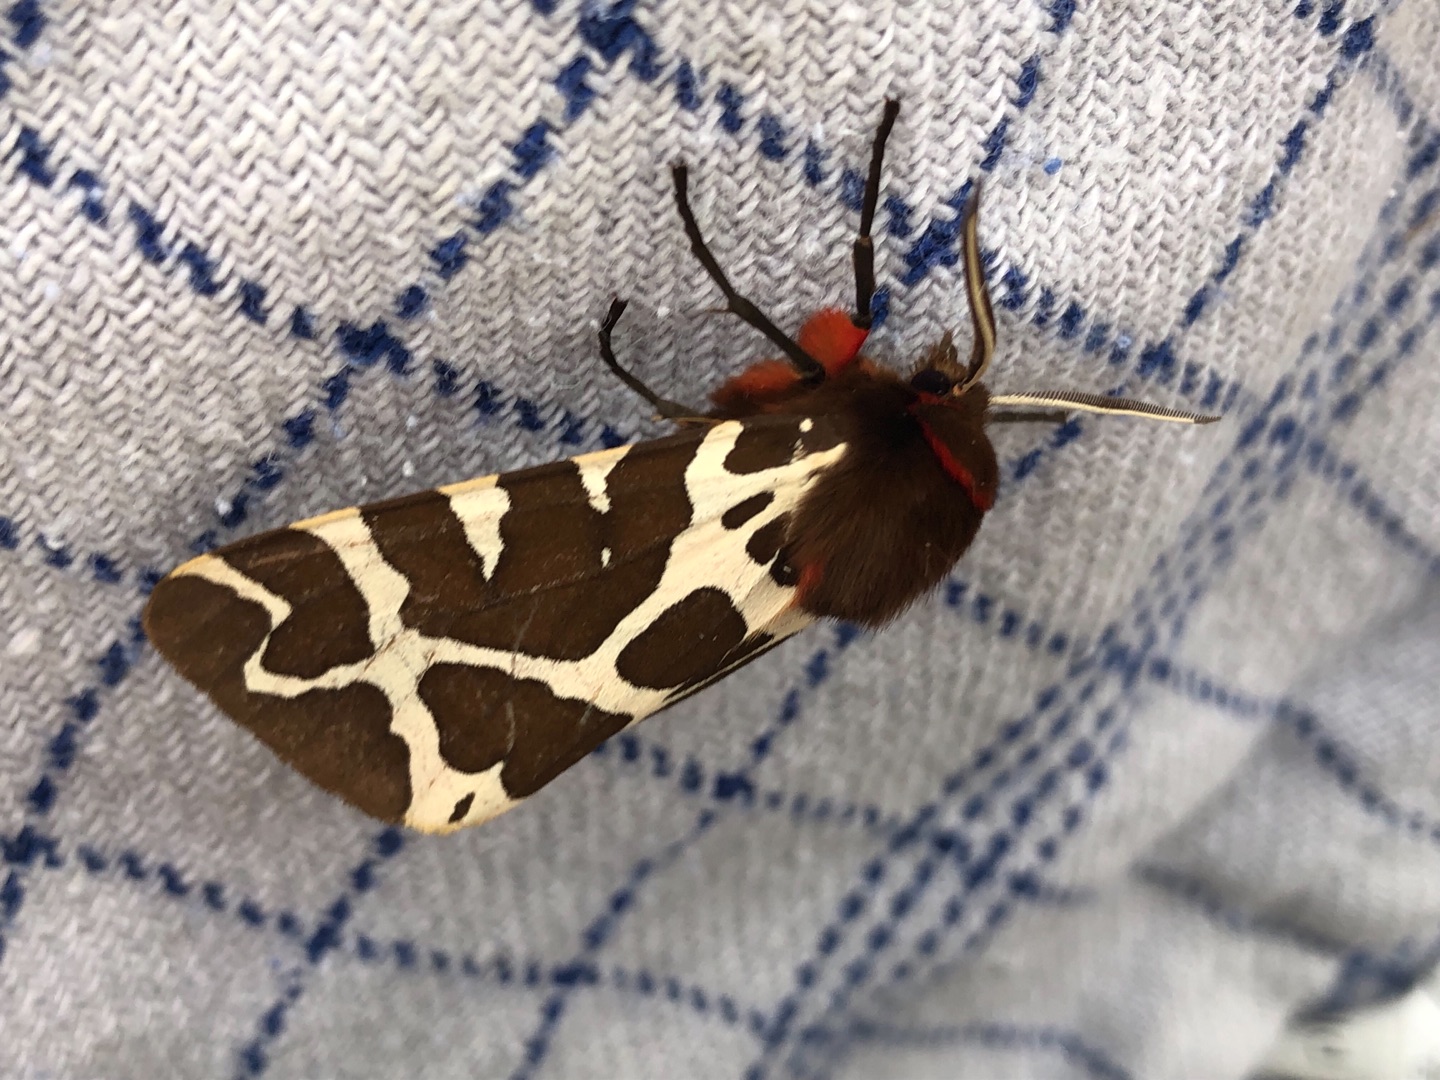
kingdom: Animalia
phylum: Arthropoda
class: Insecta
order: Lepidoptera
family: Erebidae
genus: Arctia
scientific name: Arctia caja
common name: Brun bjørn
